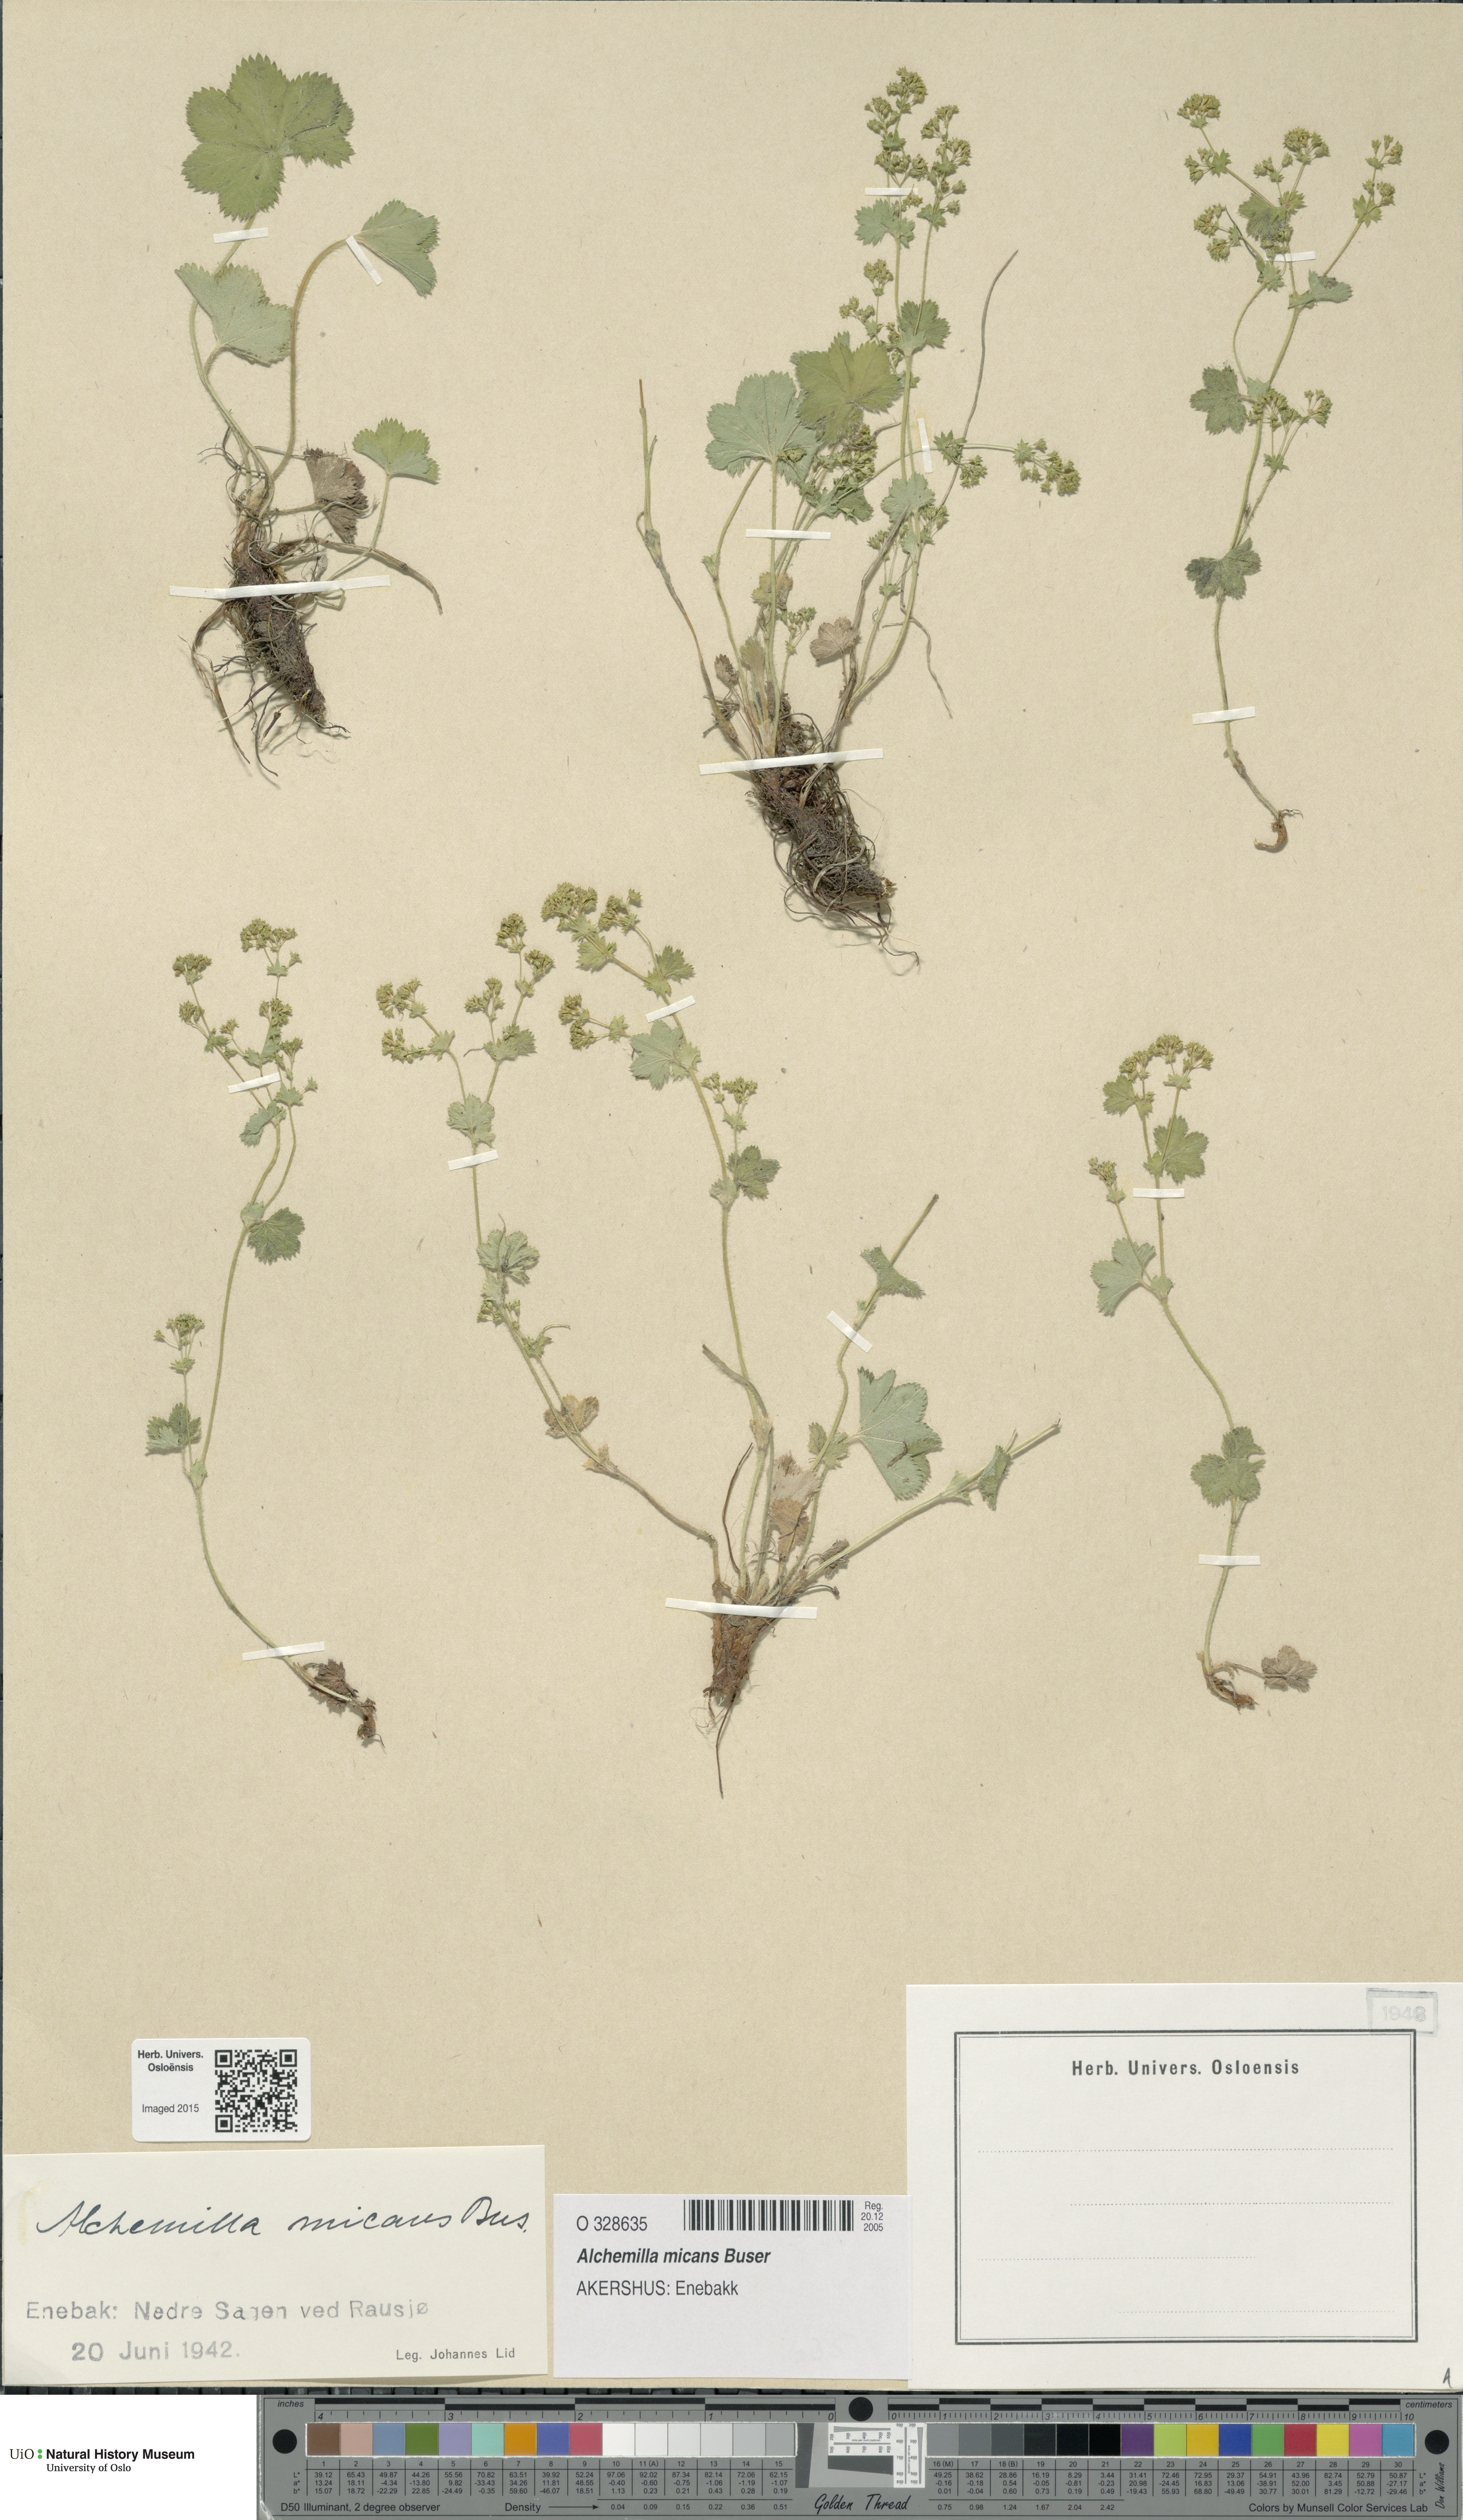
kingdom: Plantae
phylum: Tracheophyta
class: Magnoliopsida
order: Rosales
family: Rosaceae
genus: Alchemilla
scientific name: Alchemilla micans
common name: Gleaming lady's mantle
